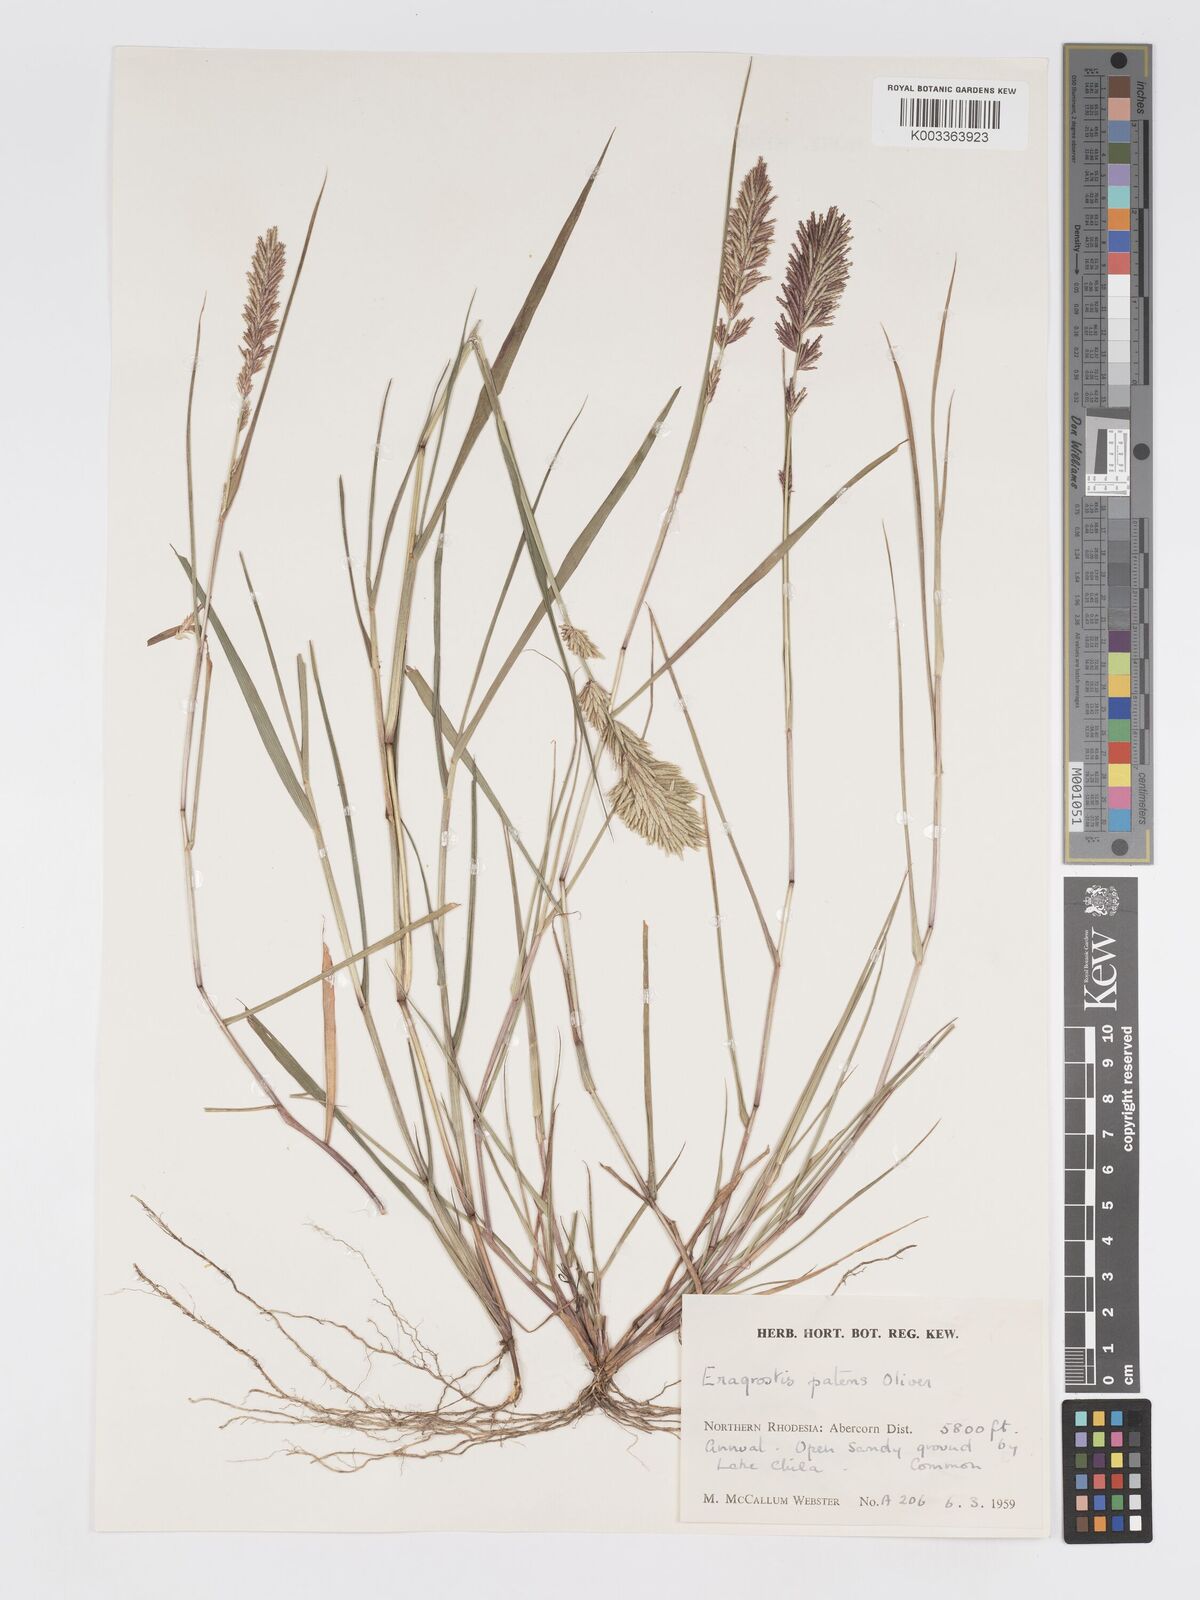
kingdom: Plantae
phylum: Tracheophyta
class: Liliopsida
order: Poales
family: Poaceae
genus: Eragrostis
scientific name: Eragrostis patens
